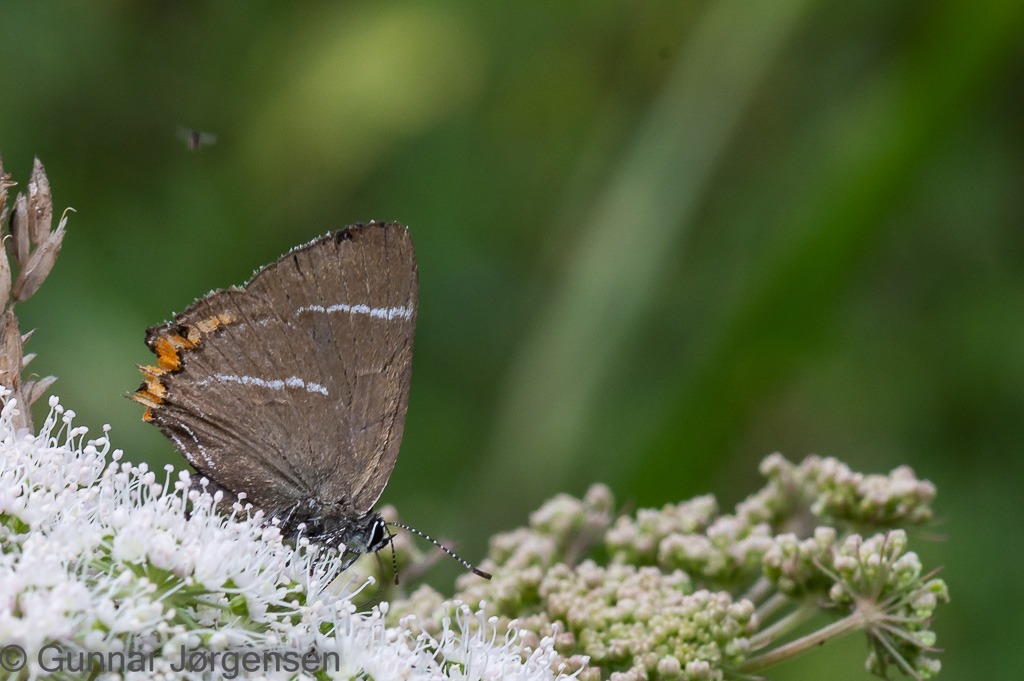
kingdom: Animalia
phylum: Arthropoda
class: Insecta
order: Lepidoptera
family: Lycaenidae
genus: Satyrium
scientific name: Satyrium w-album
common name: Det hvide W
